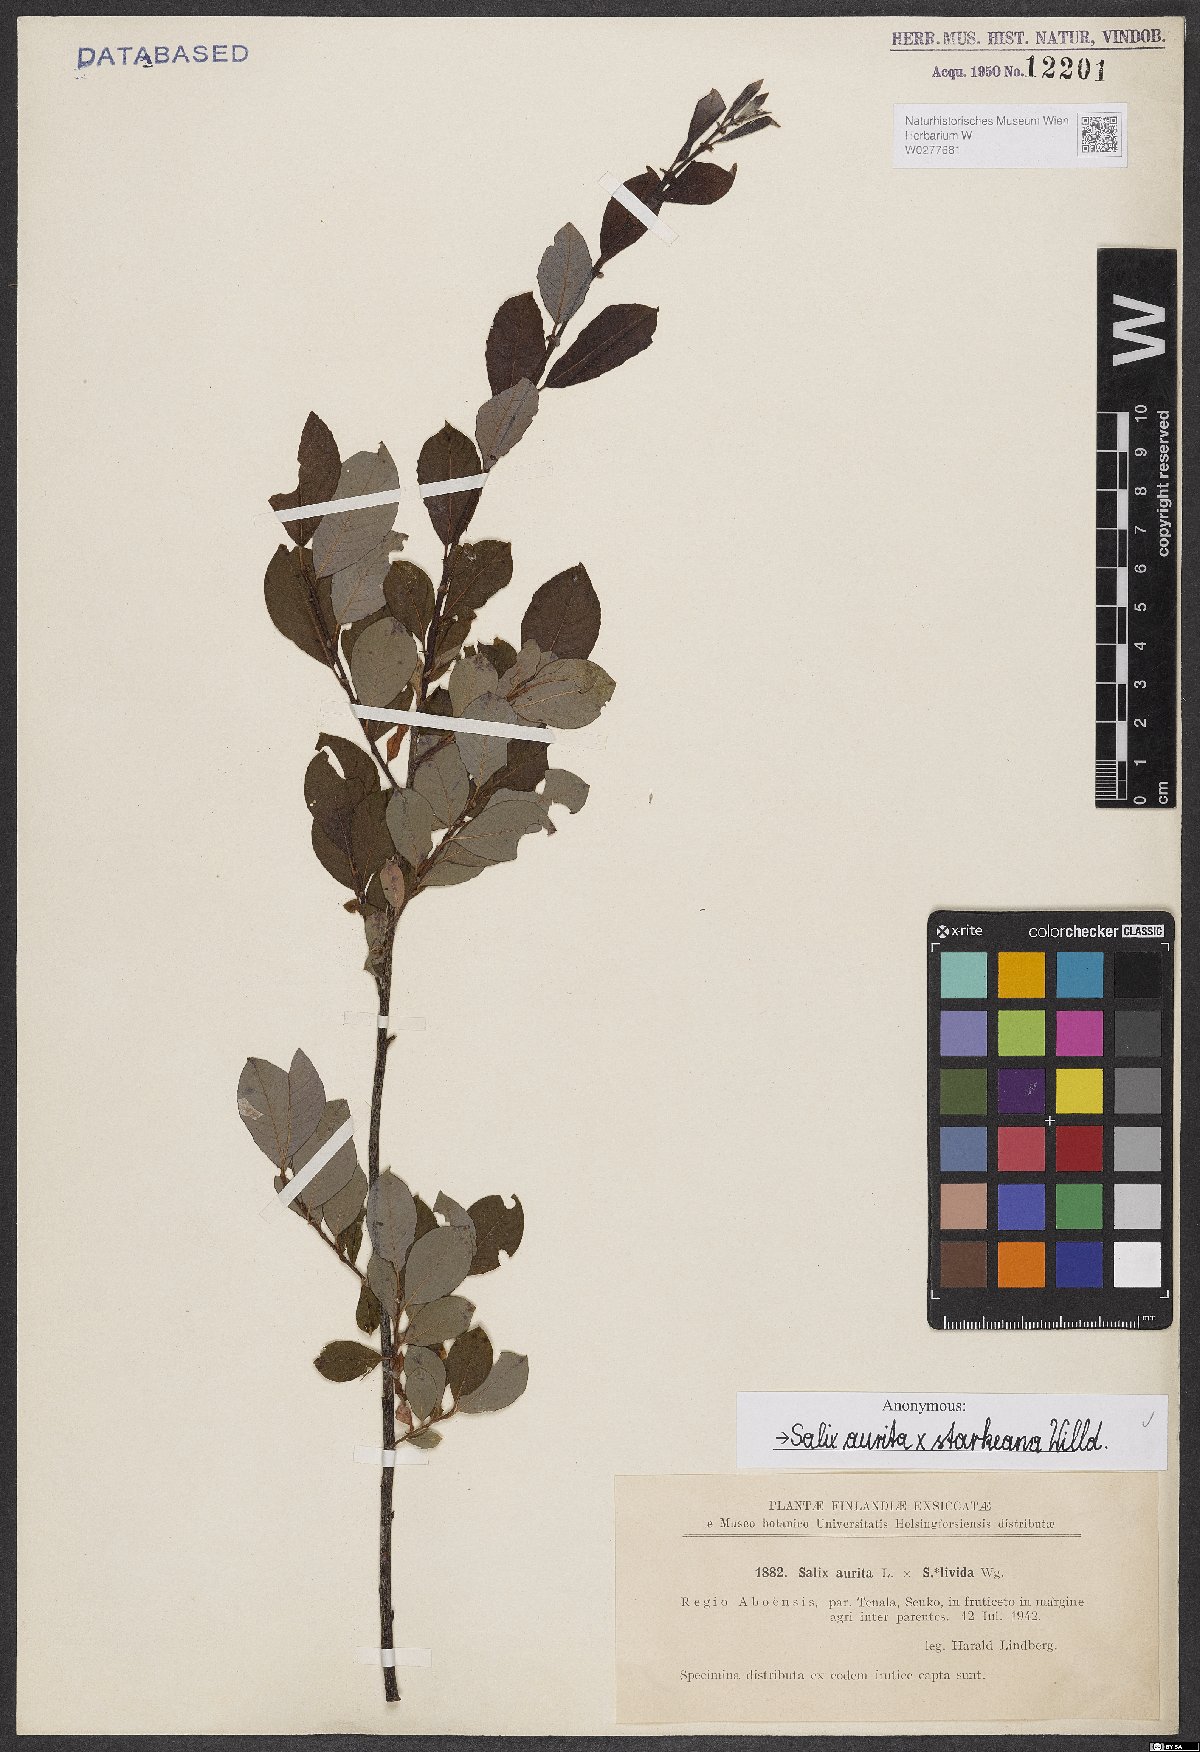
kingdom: Plantae
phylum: Tracheophyta
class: Magnoliopsida
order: Malpighiales
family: Salicaceae
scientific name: Salicaceae
